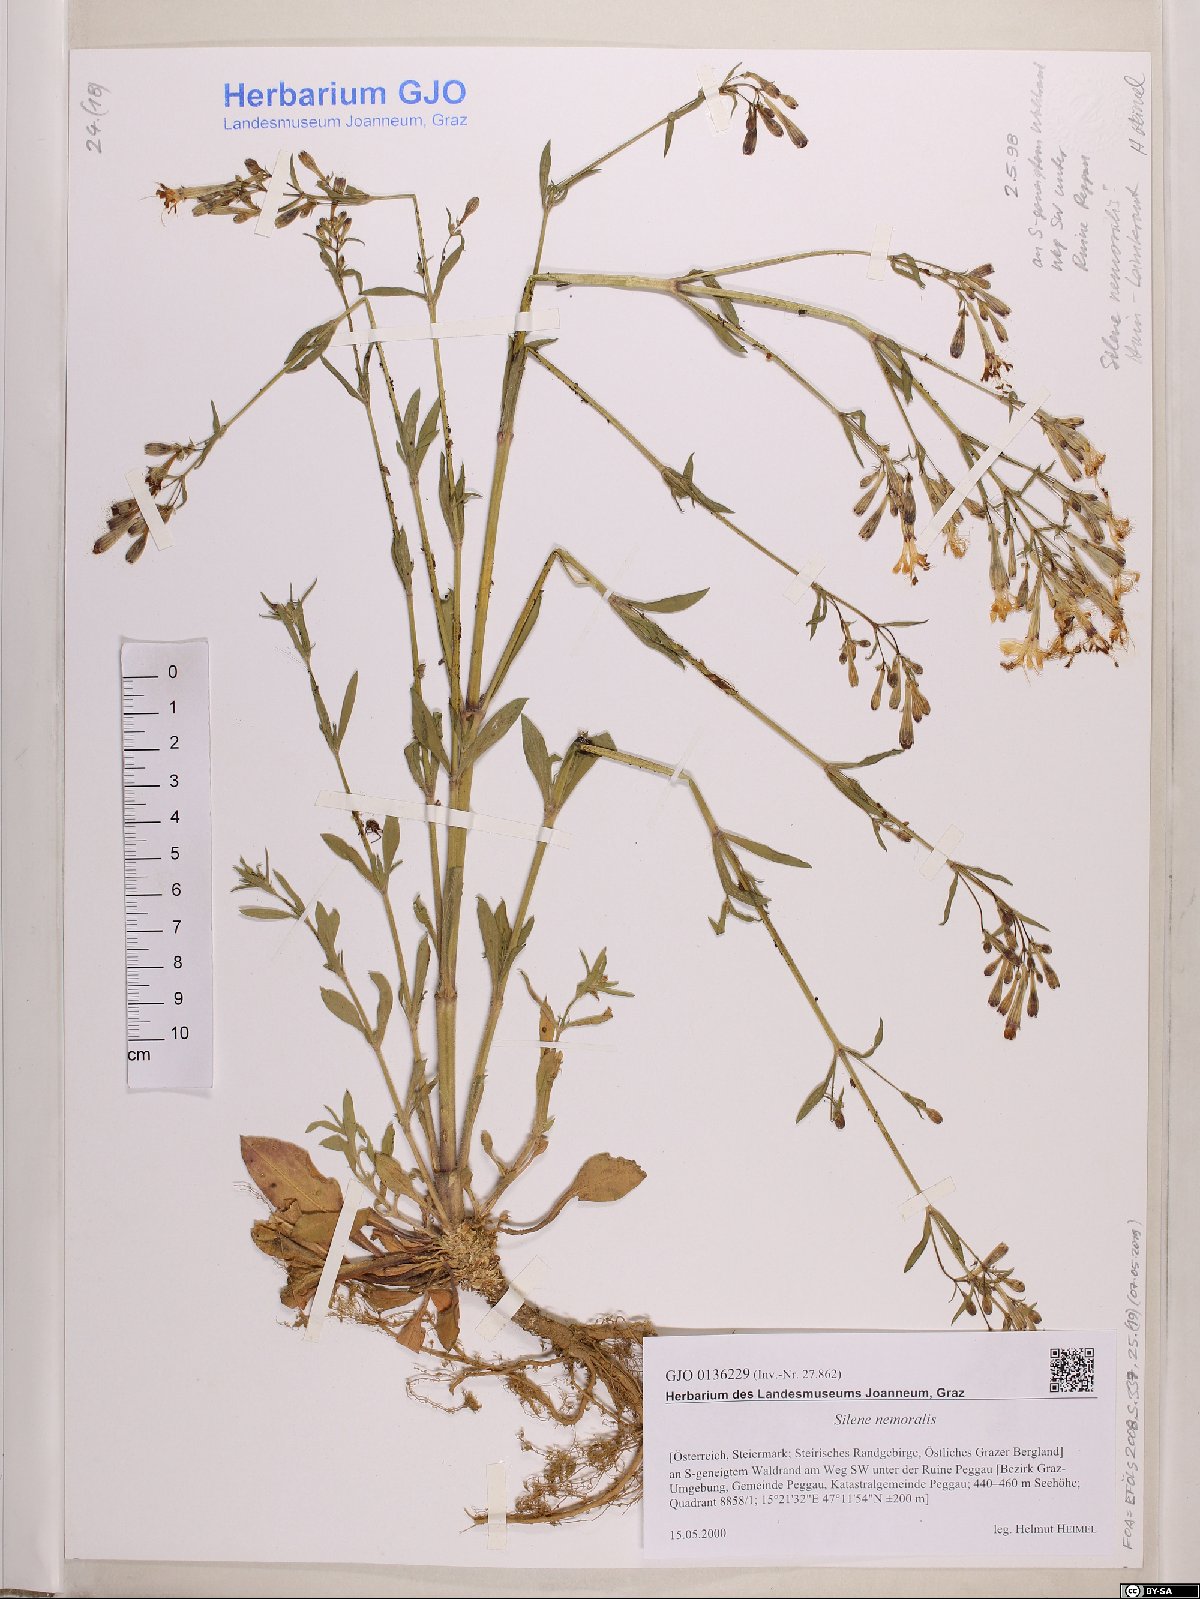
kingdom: Plantae
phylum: Tracheophyta
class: Magnoliopsida
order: Caryophyllales
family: Caryophyllaceae
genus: Silene
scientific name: Silene nemoralis
